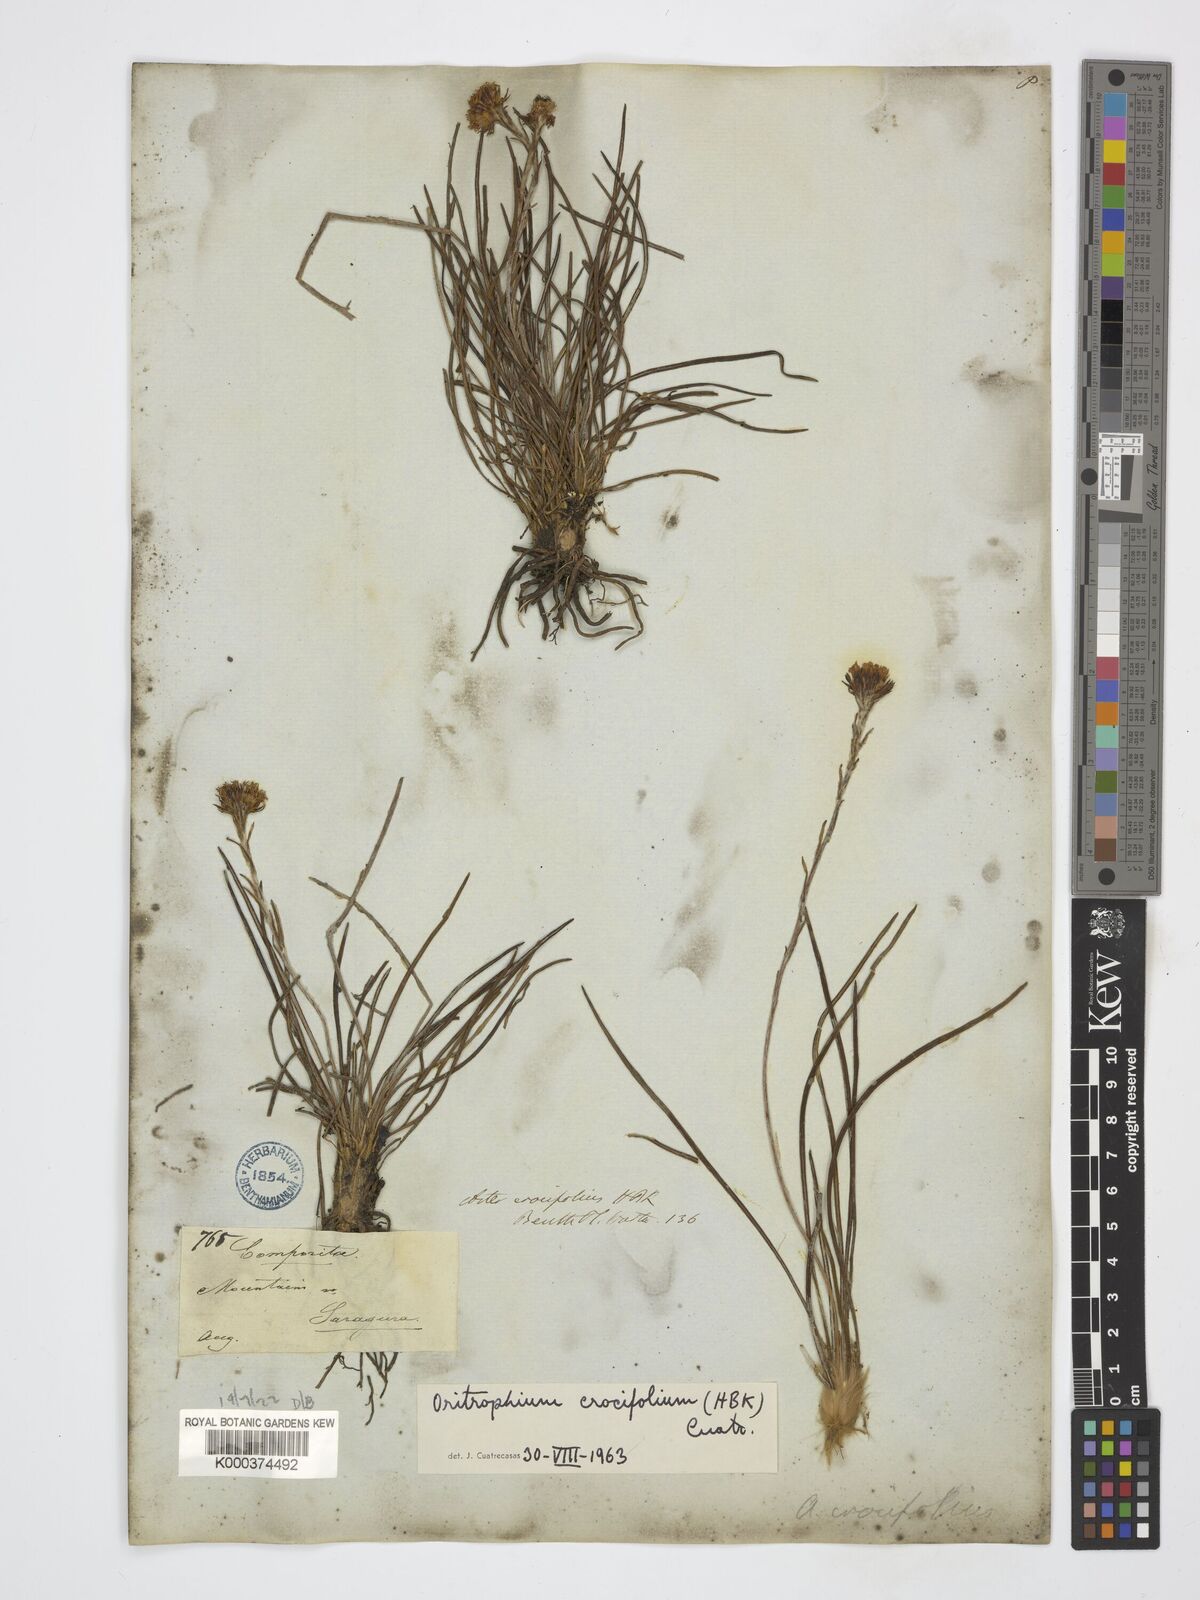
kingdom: Plantae
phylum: Tracheophyta
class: Magnoliopsida
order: Asterales
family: Asteraceae
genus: Oritrophium
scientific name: Oritrophium crocifolium
